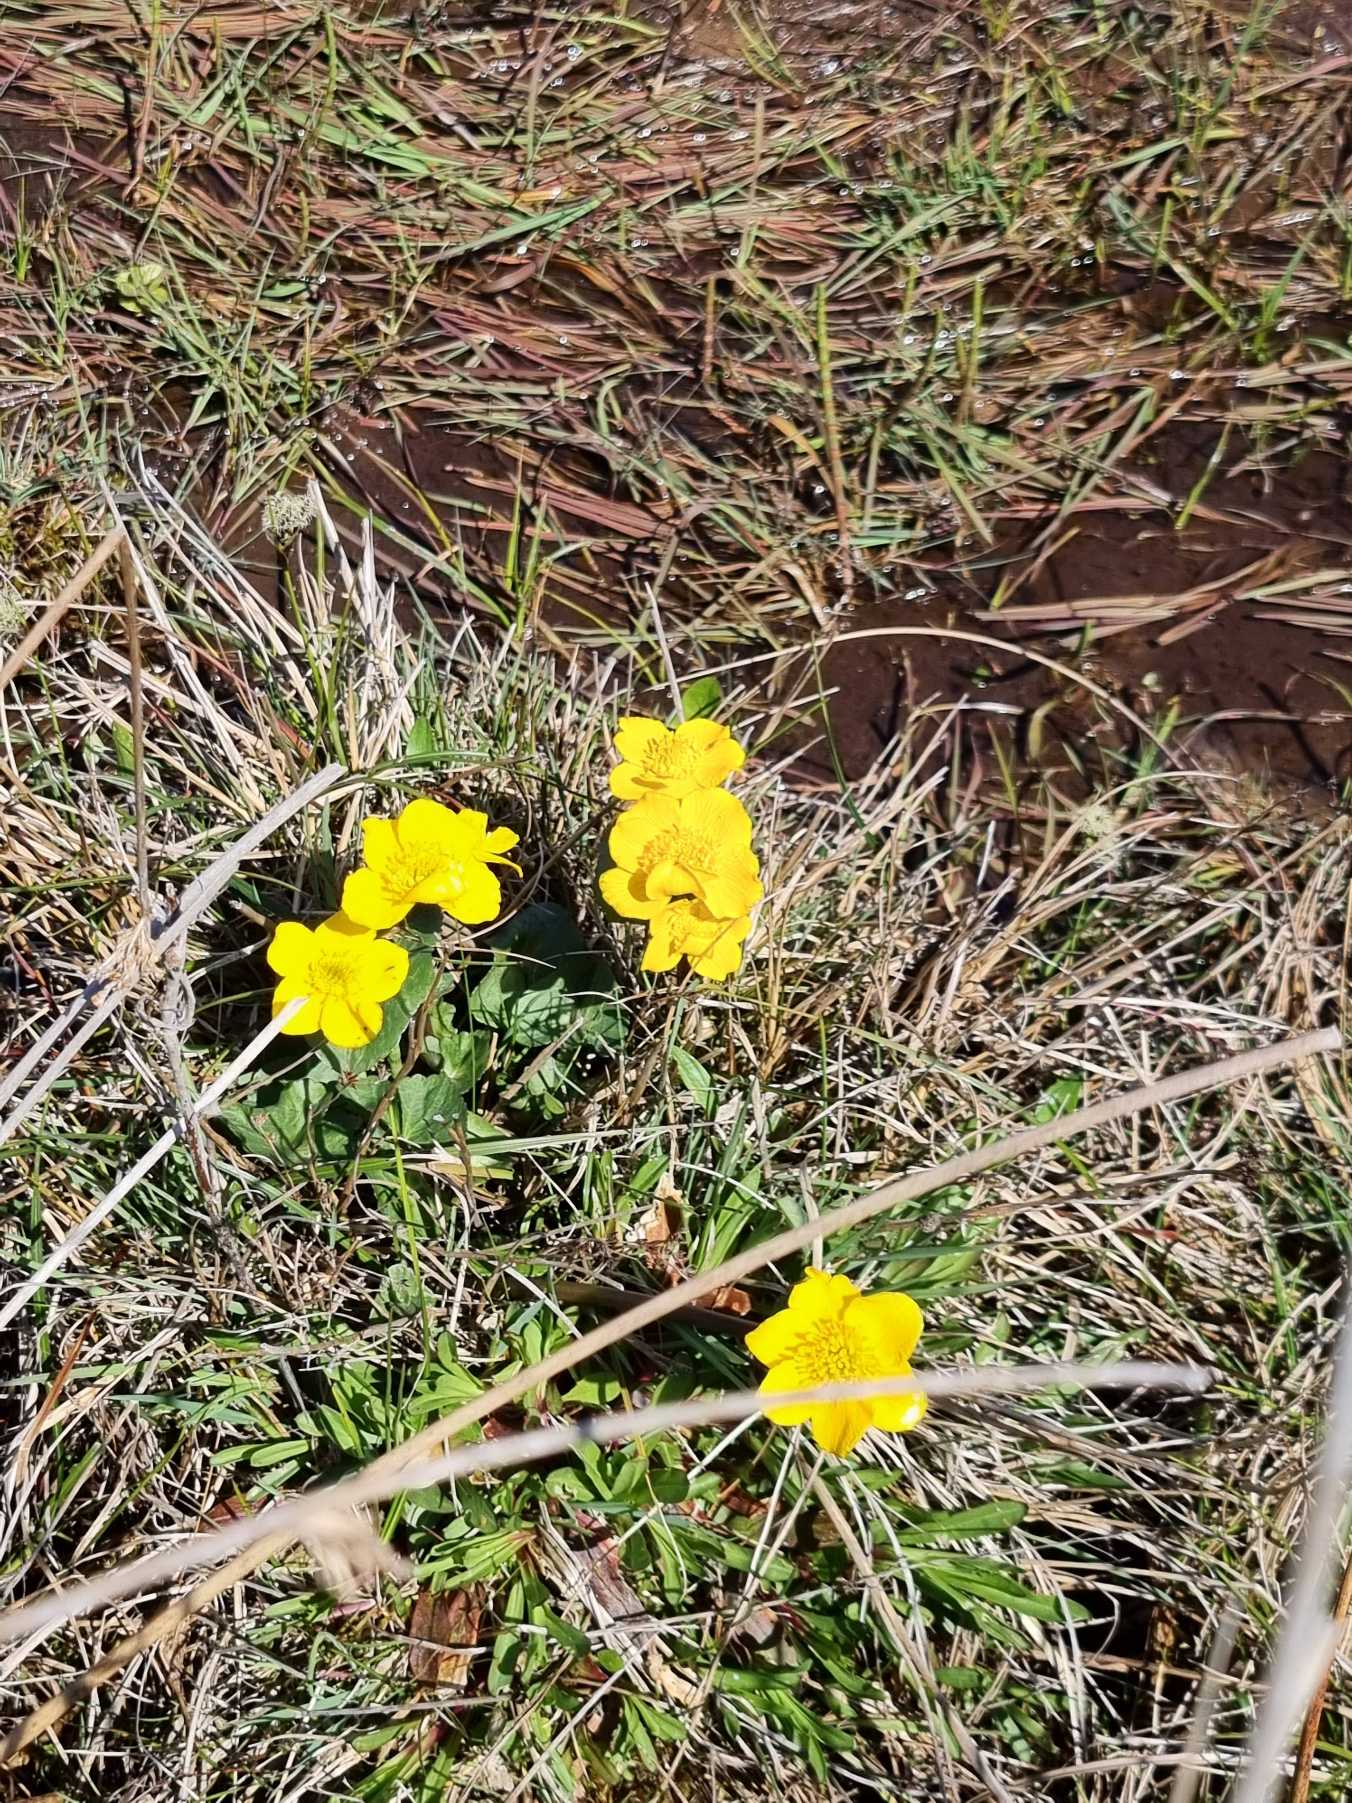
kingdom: Plantae
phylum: Tracheophyta
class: Magnoliopsida
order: Ranunculales
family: Ranunculaceae
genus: Caltha
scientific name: Caltha palustris
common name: Eng-kabbeleje
